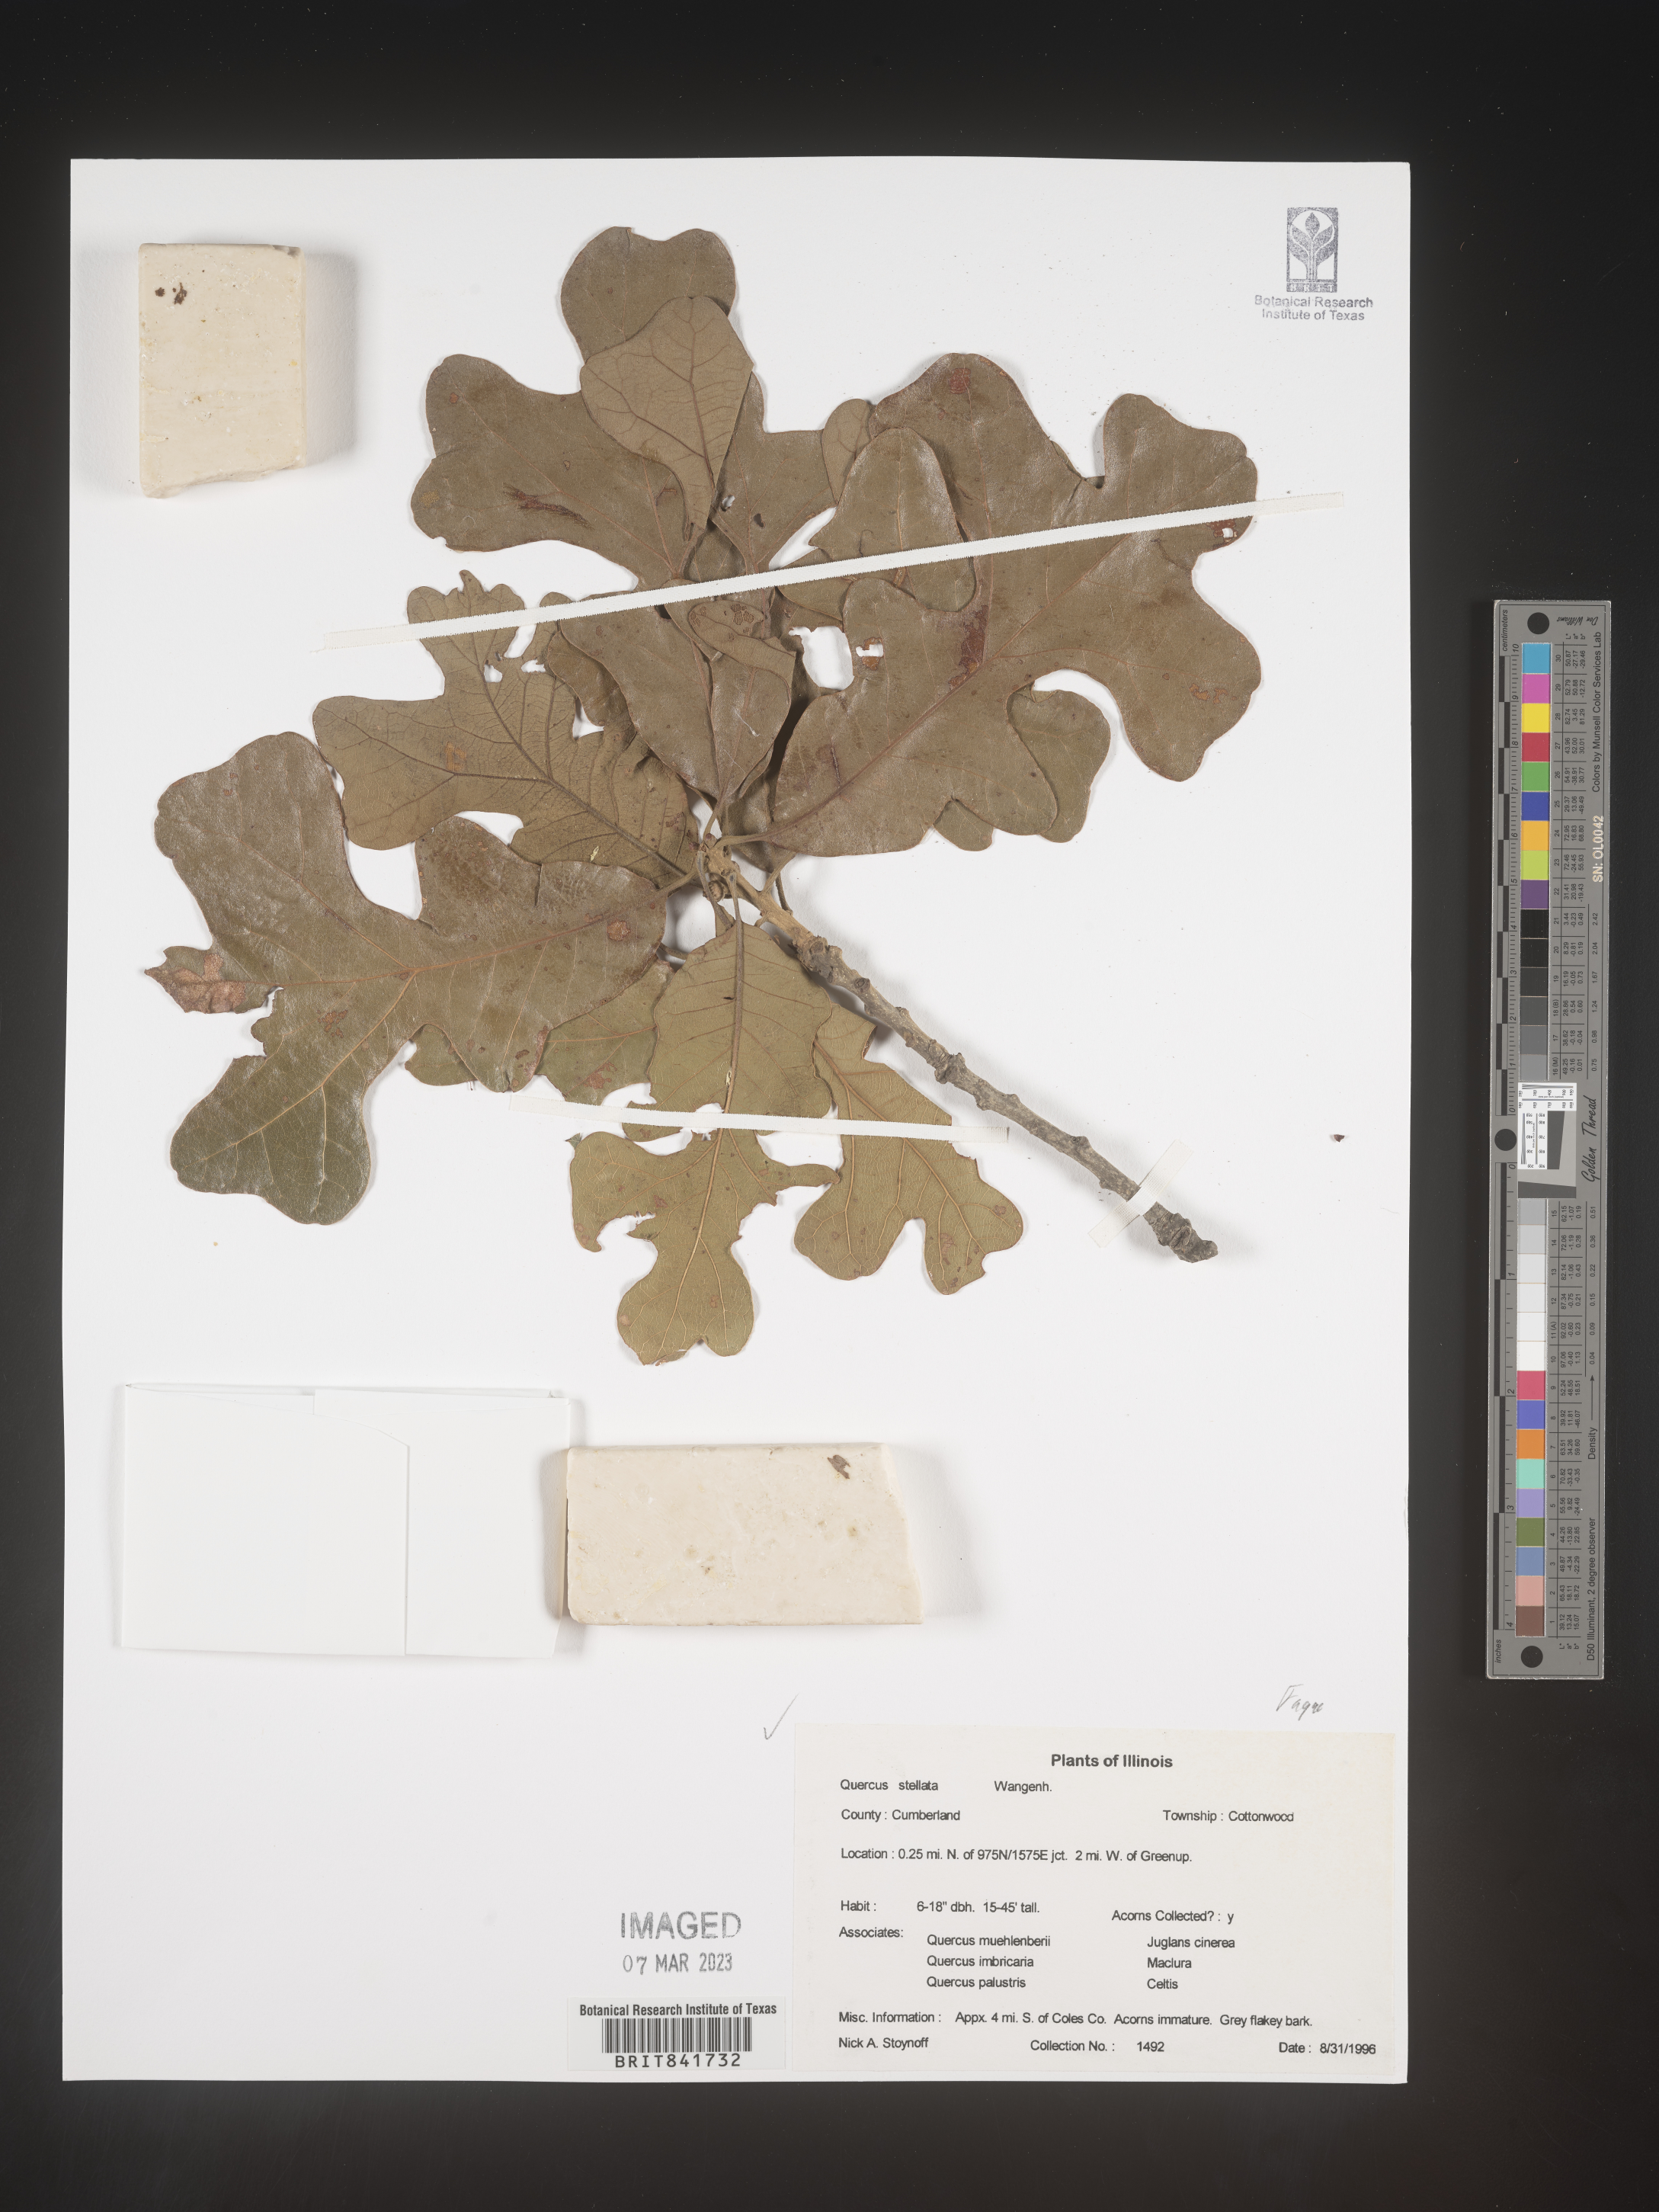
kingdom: Plantae
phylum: Tracheophyta
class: Magnoliopsida
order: Fagales
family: Fagaceae
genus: Quercus
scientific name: Quercus stellata
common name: Post oak
